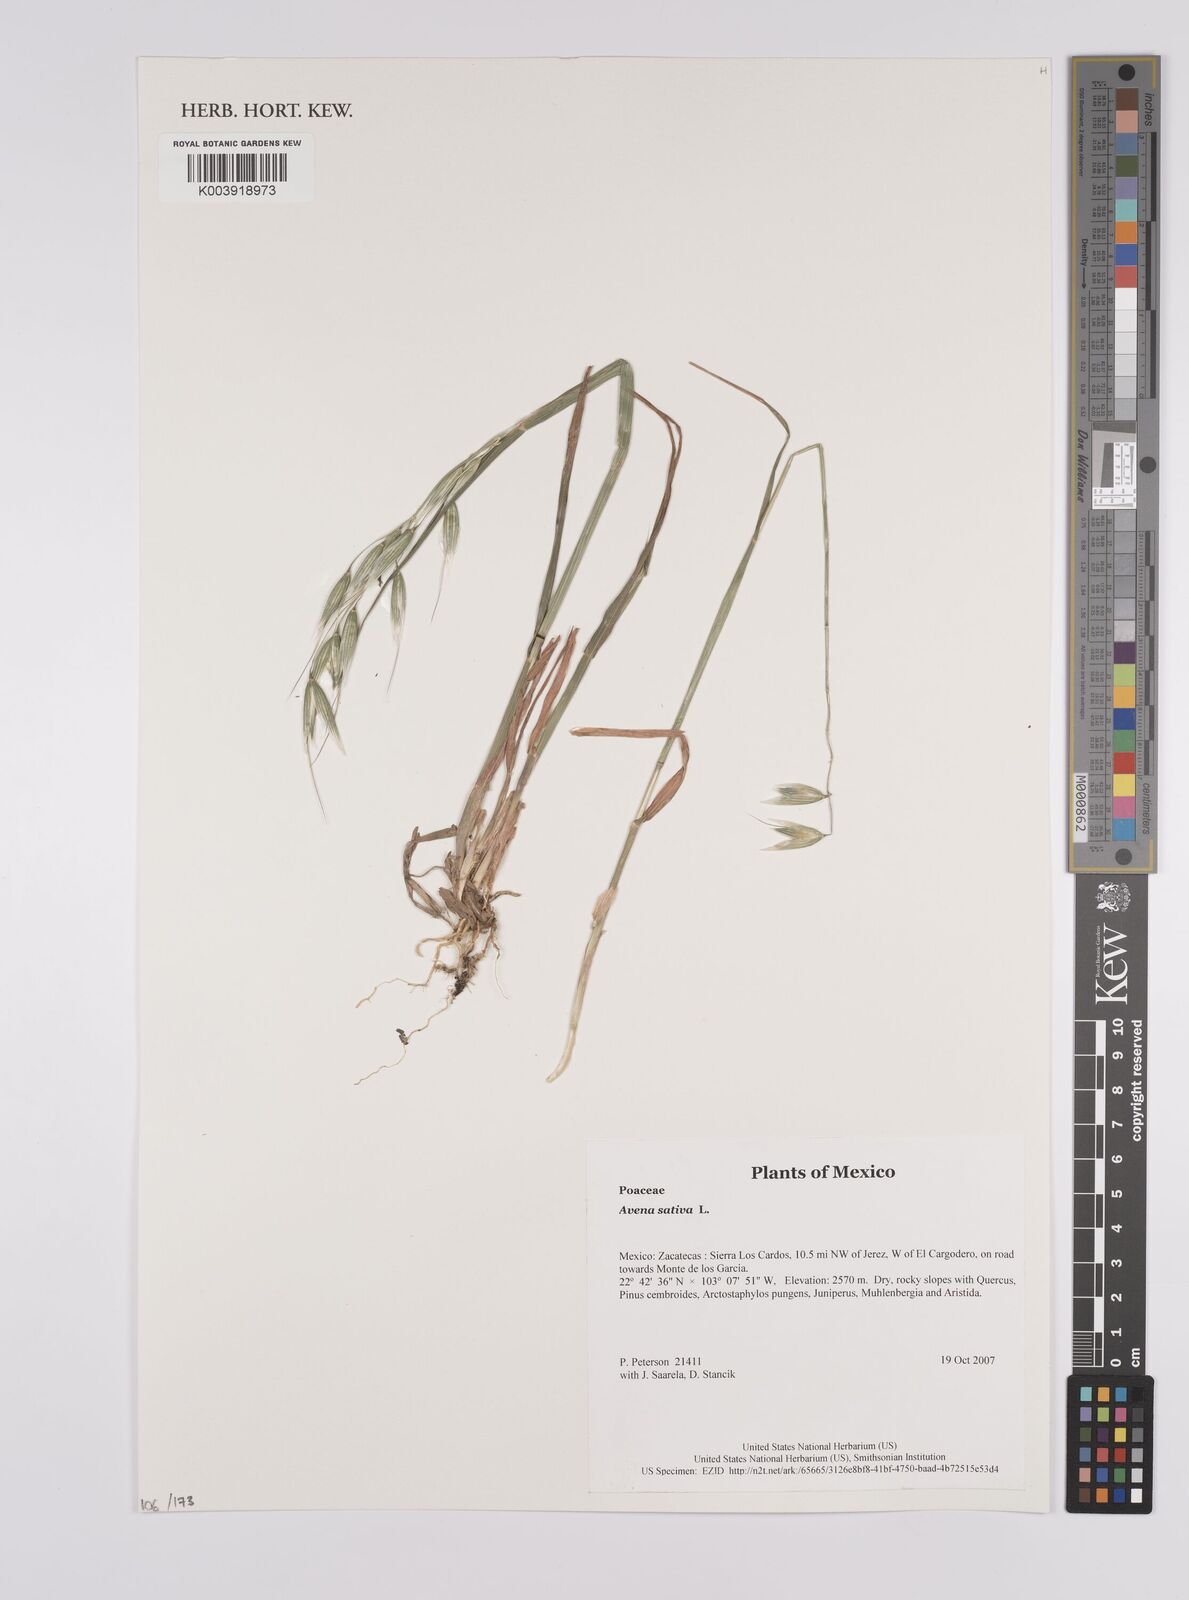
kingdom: Plantae
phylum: Tracheophyta
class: Liliopsida
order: Poales
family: Poaceae
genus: Avena
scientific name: Avena sativa
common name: Oat
